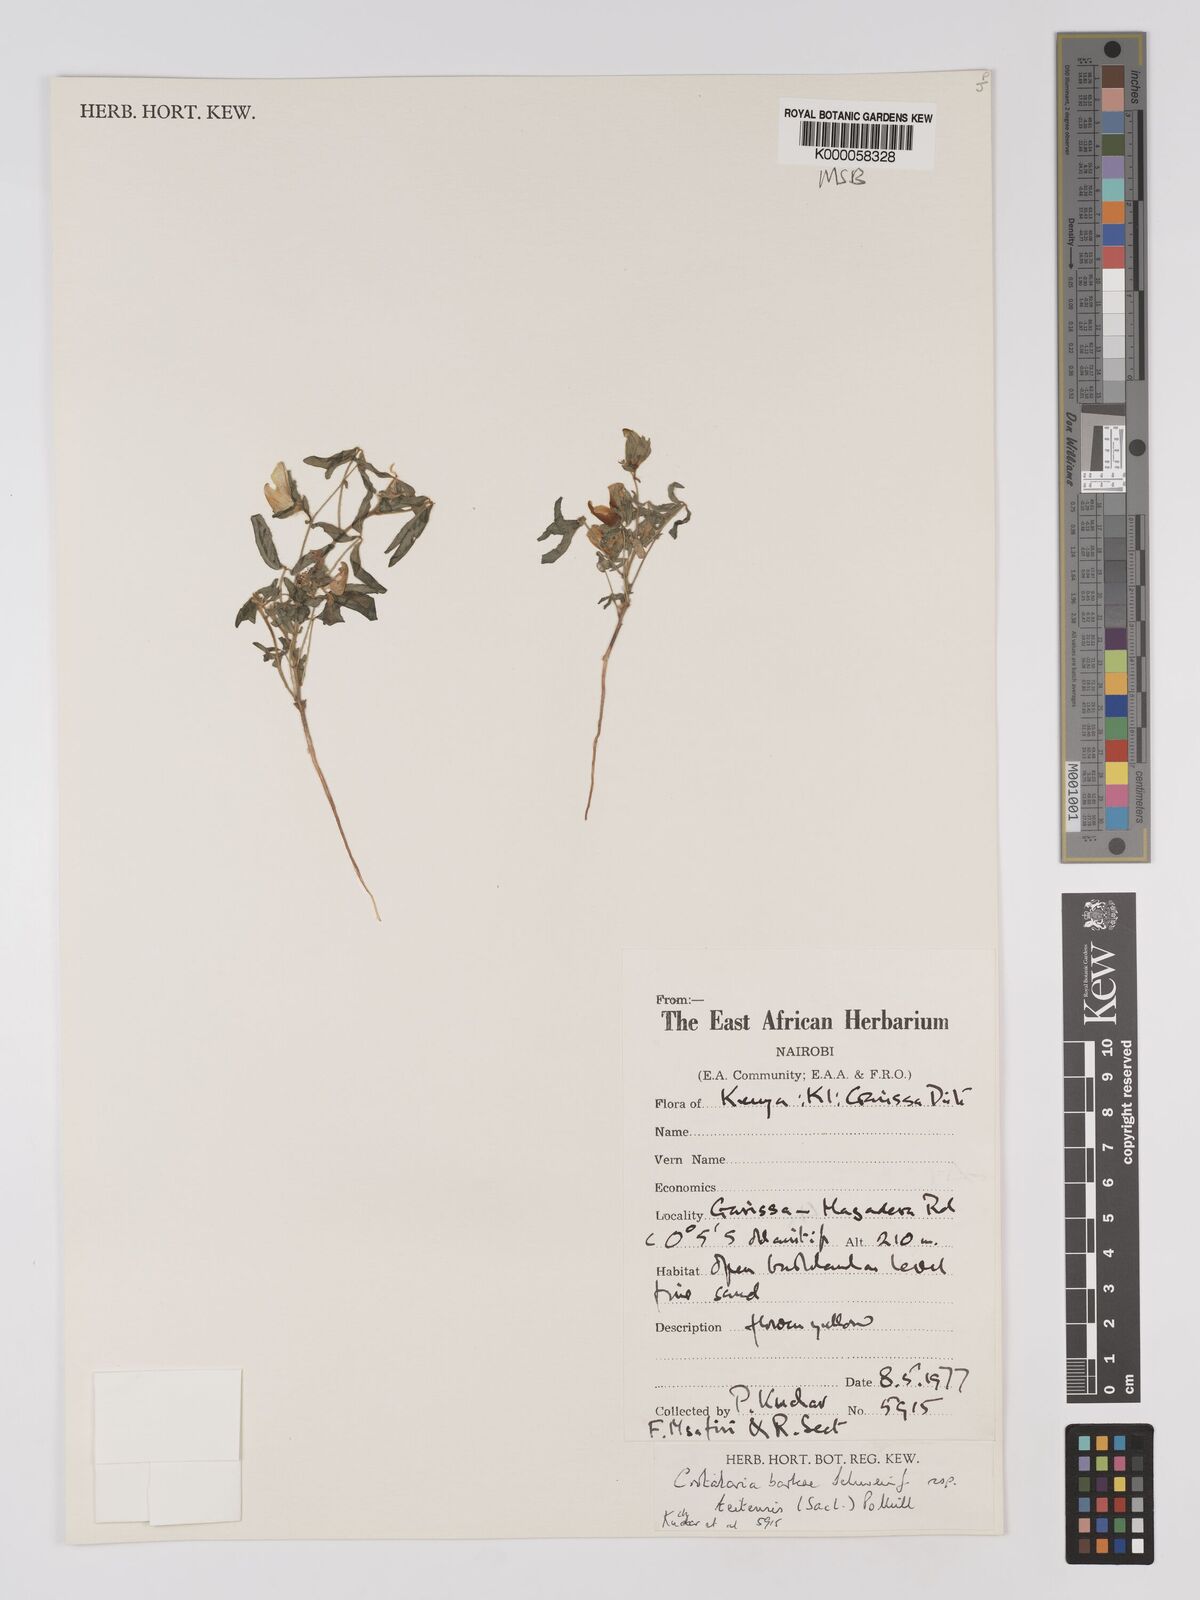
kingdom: Plantae
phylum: Tracheophyta
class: Magnoliopsida
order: Fabales
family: Fabaceae
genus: Crotalaria
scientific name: Crotalaria barkae
